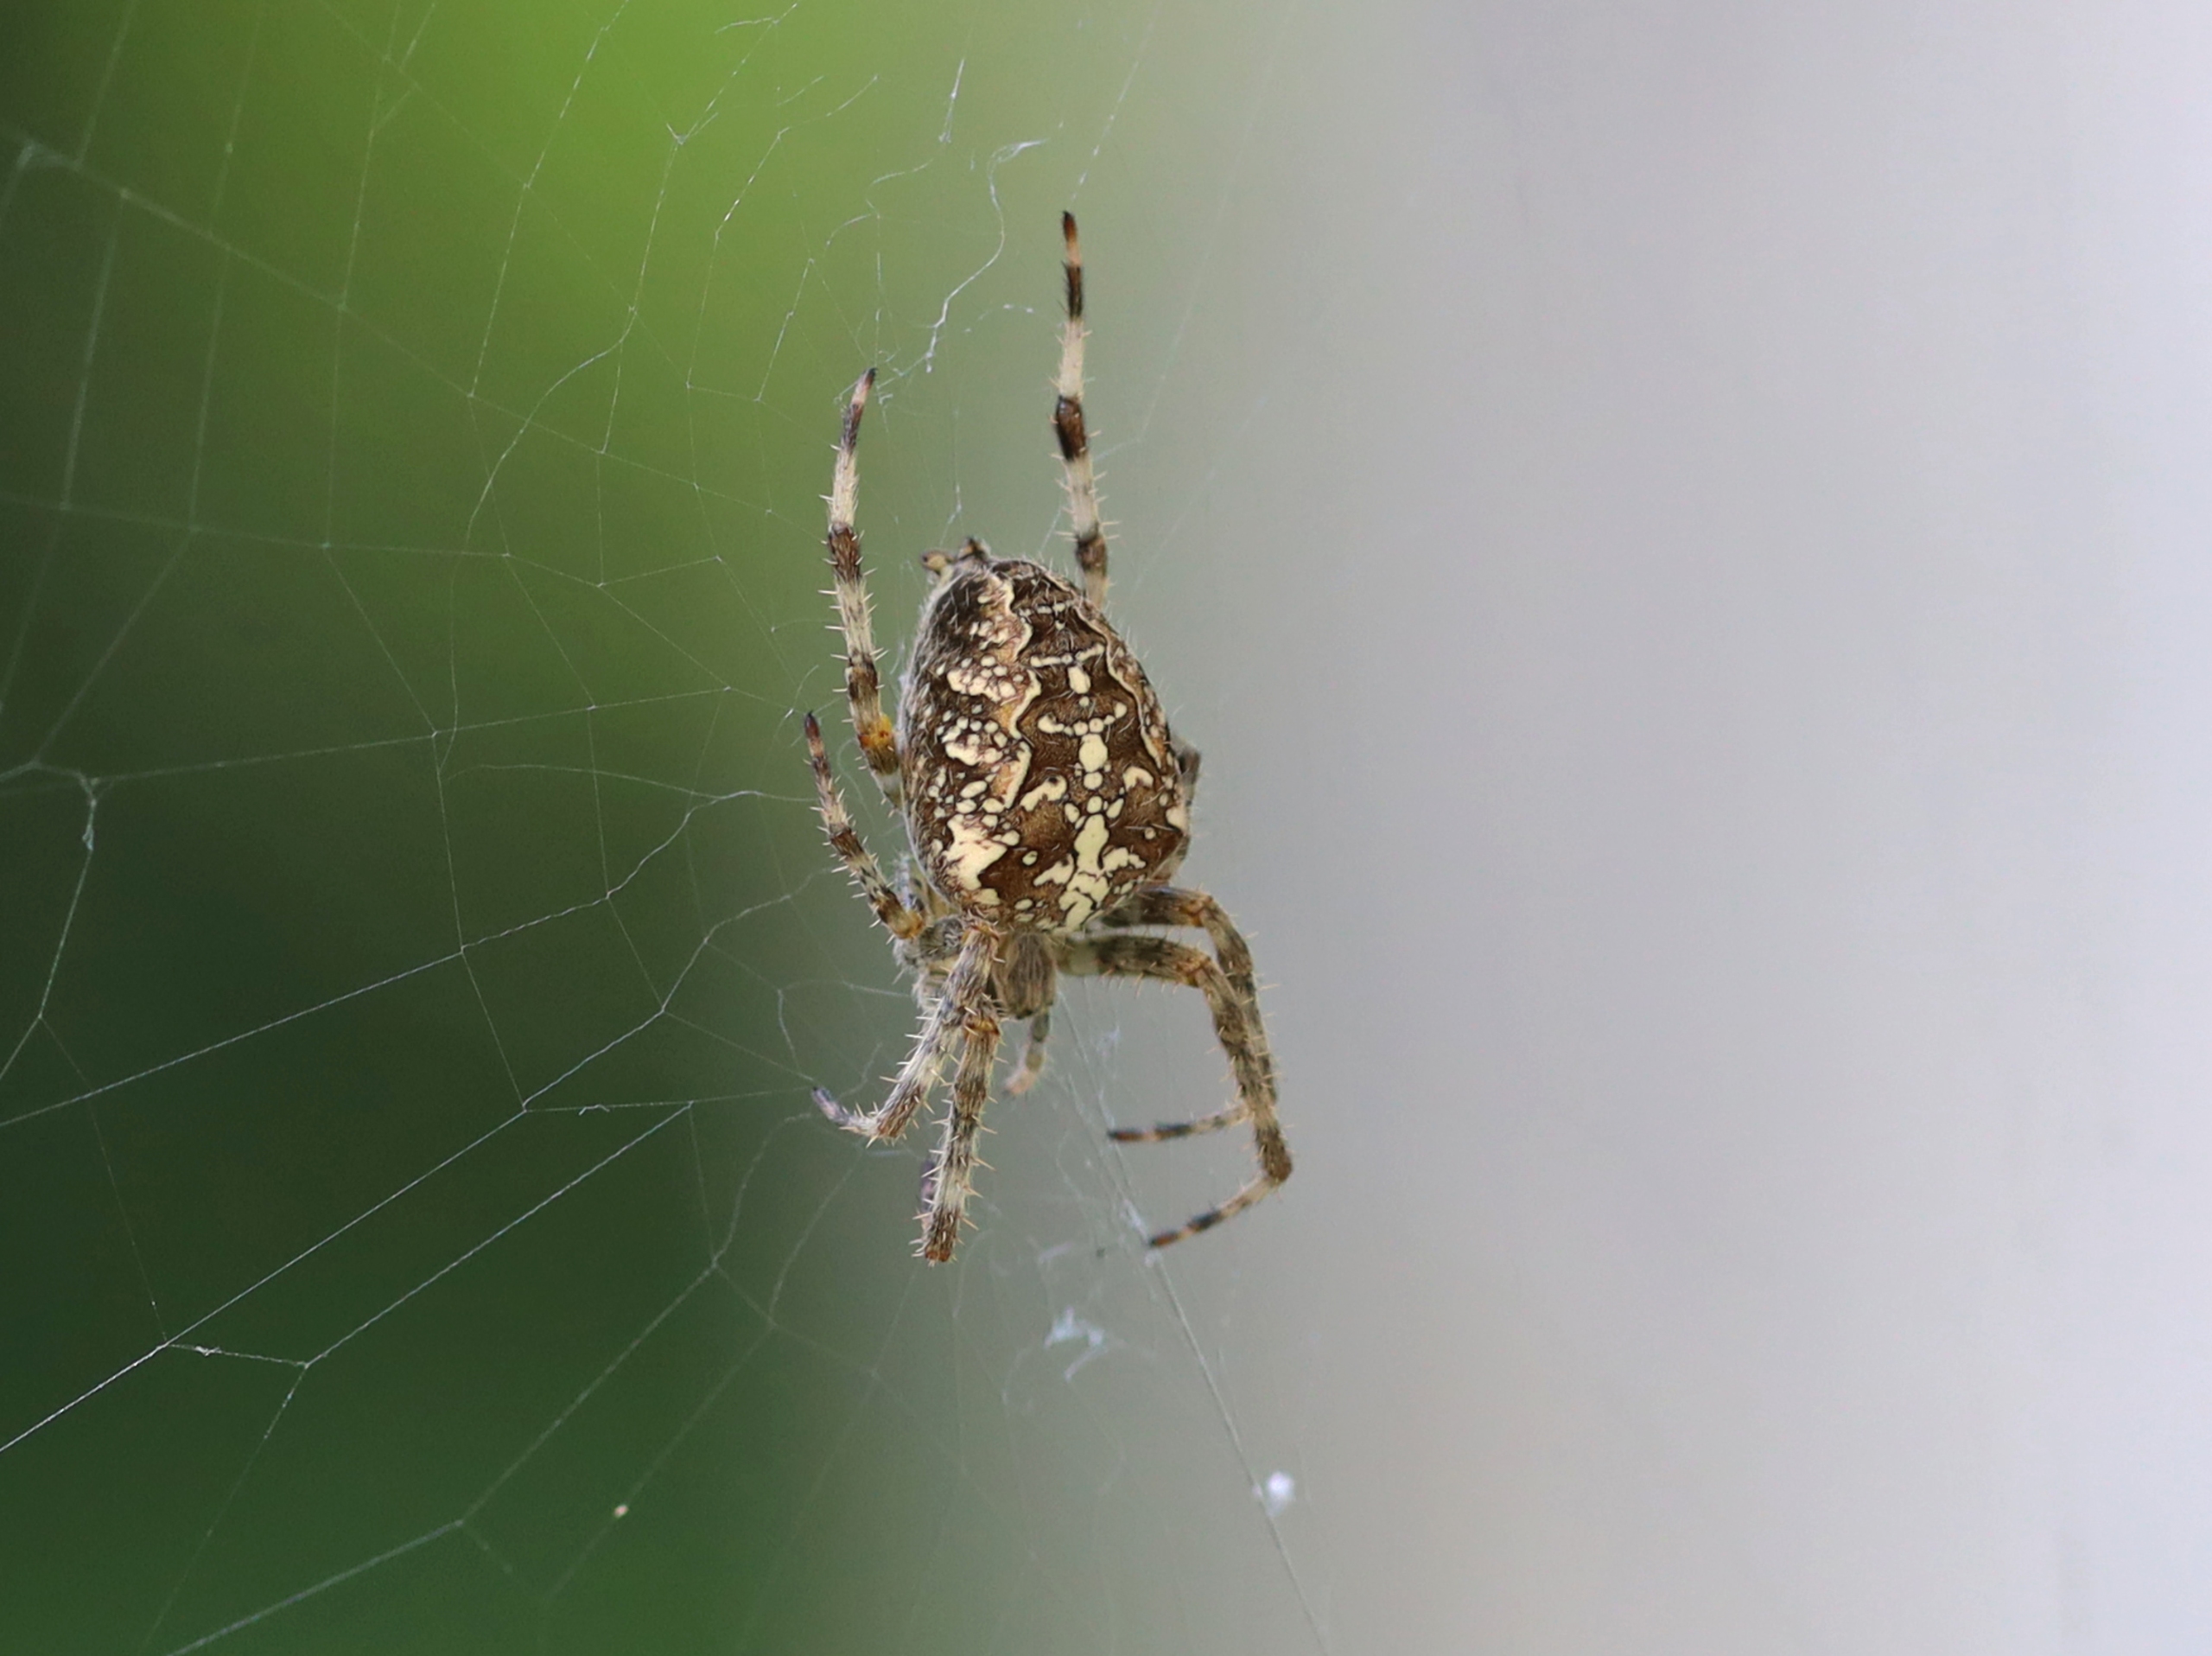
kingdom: Animalia
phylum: Arthropoda
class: Arachnida
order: Araneae
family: Araneidae
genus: Araneus
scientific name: Araneus diadematus
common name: Korsedderkop
